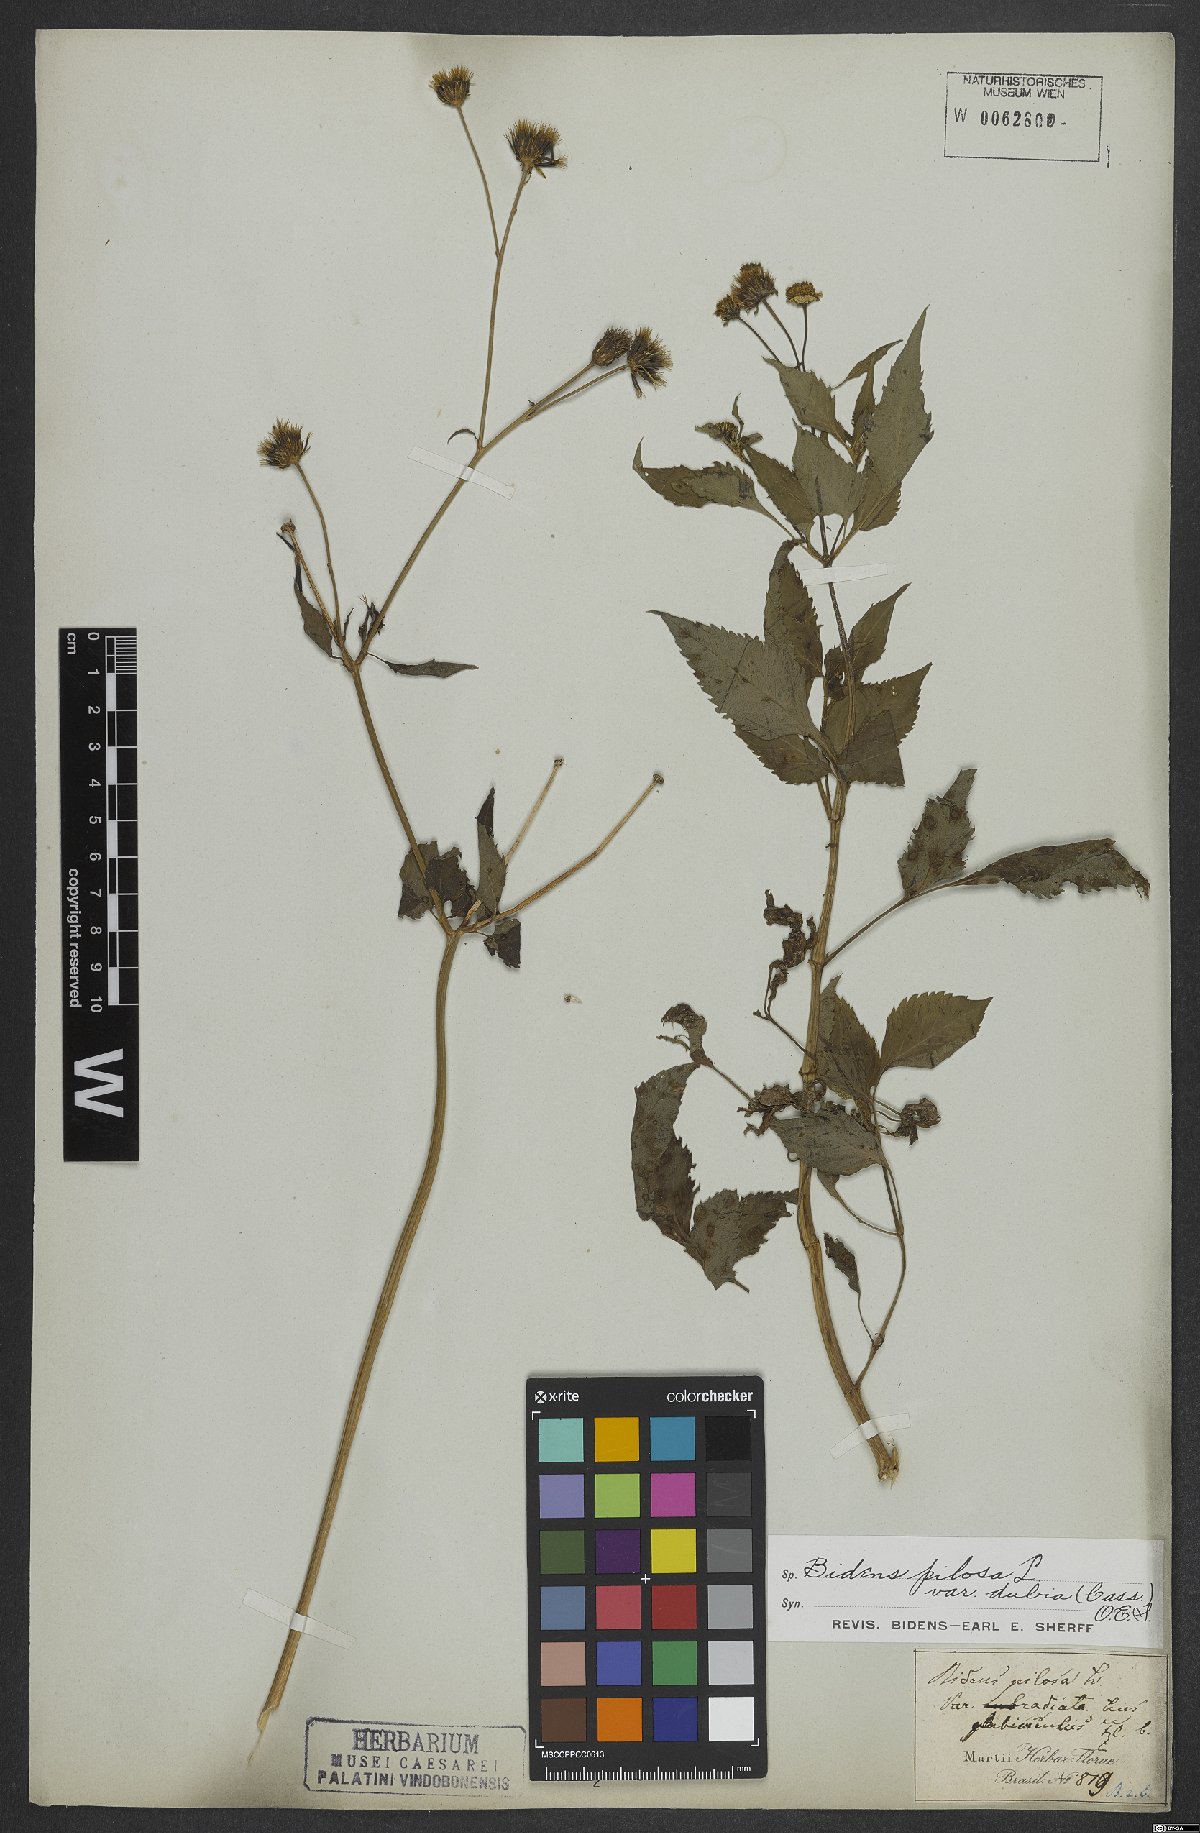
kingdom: Plantae
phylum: Tracheophyta
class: Magnoliopsida
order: Asterales
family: Asteraceae
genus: Bidens
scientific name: Bidens pilosa
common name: Black-jack
